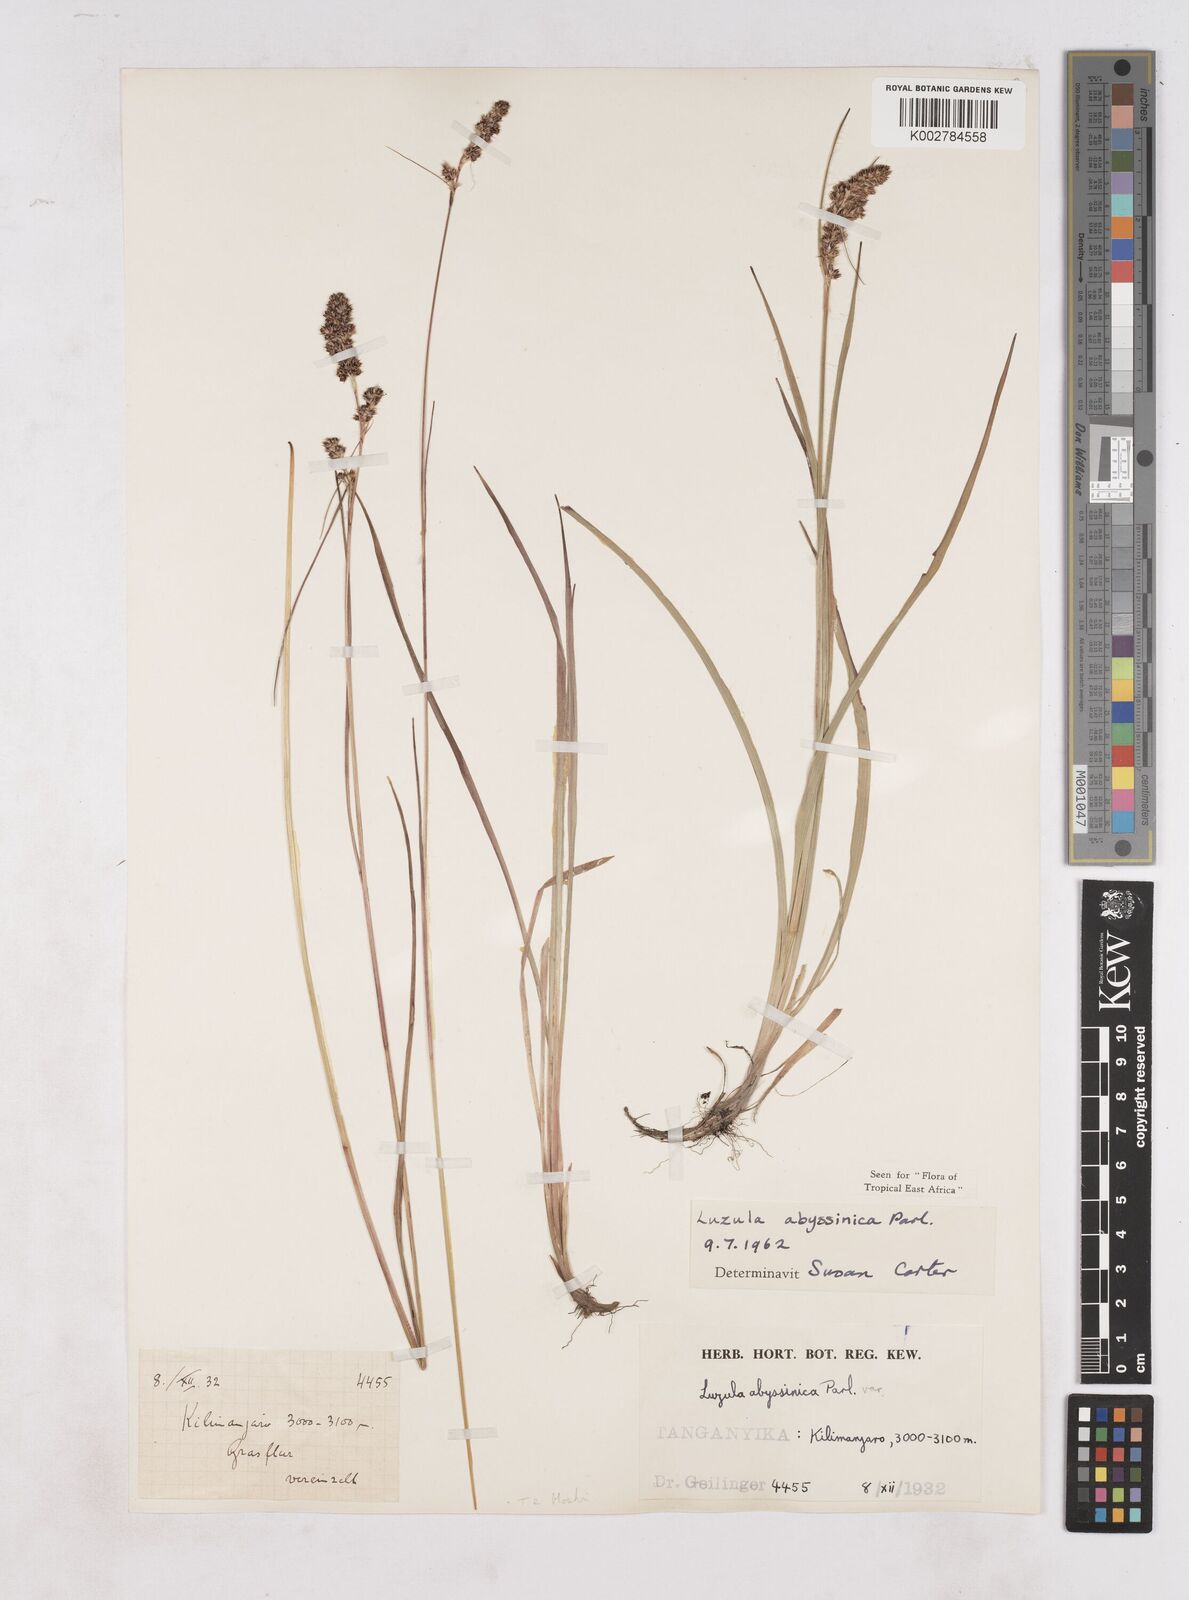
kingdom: Plantae
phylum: Tracheophyta
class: Liliopsida
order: Poales
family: Juncaceae
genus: Luzula
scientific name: Luzula abyssinica
